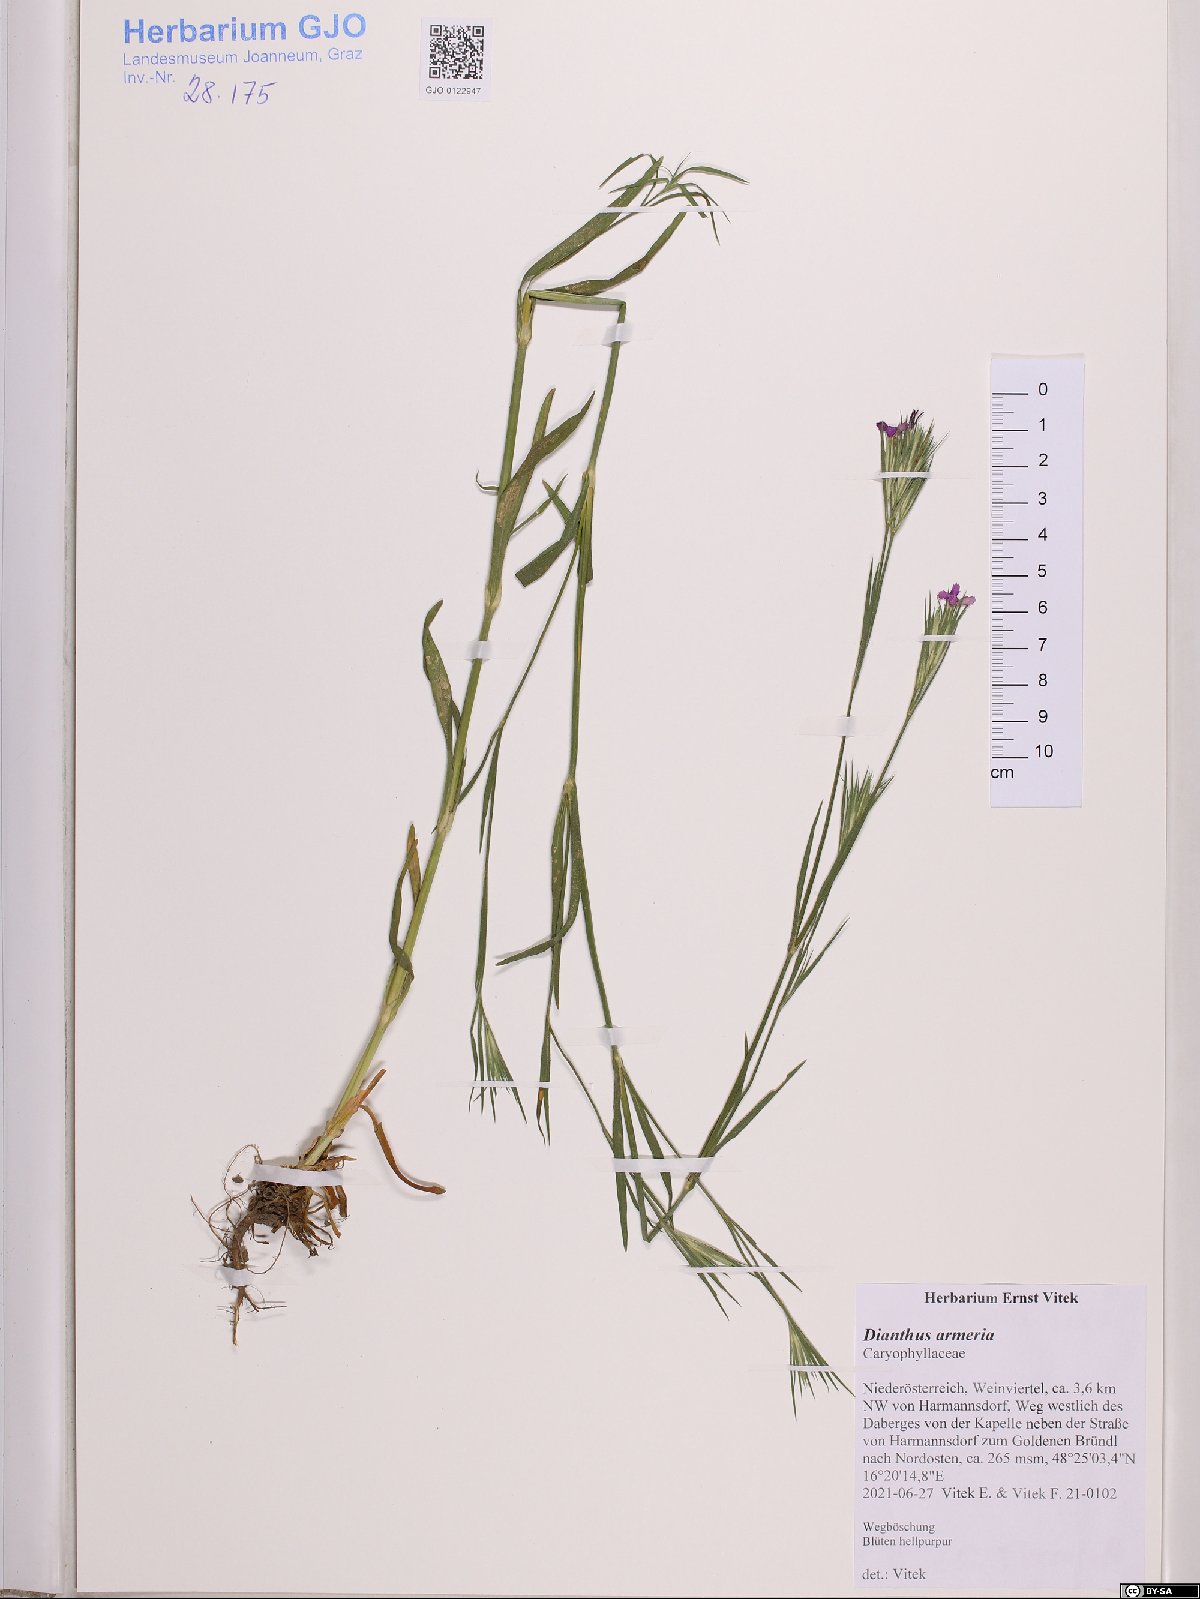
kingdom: Plantae
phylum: Tracheophyta
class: Magnoliopsida
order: Caryophyllales
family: Caryophyllaceae
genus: Dianthus
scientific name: Dianthus armeria
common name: Deptford pink
